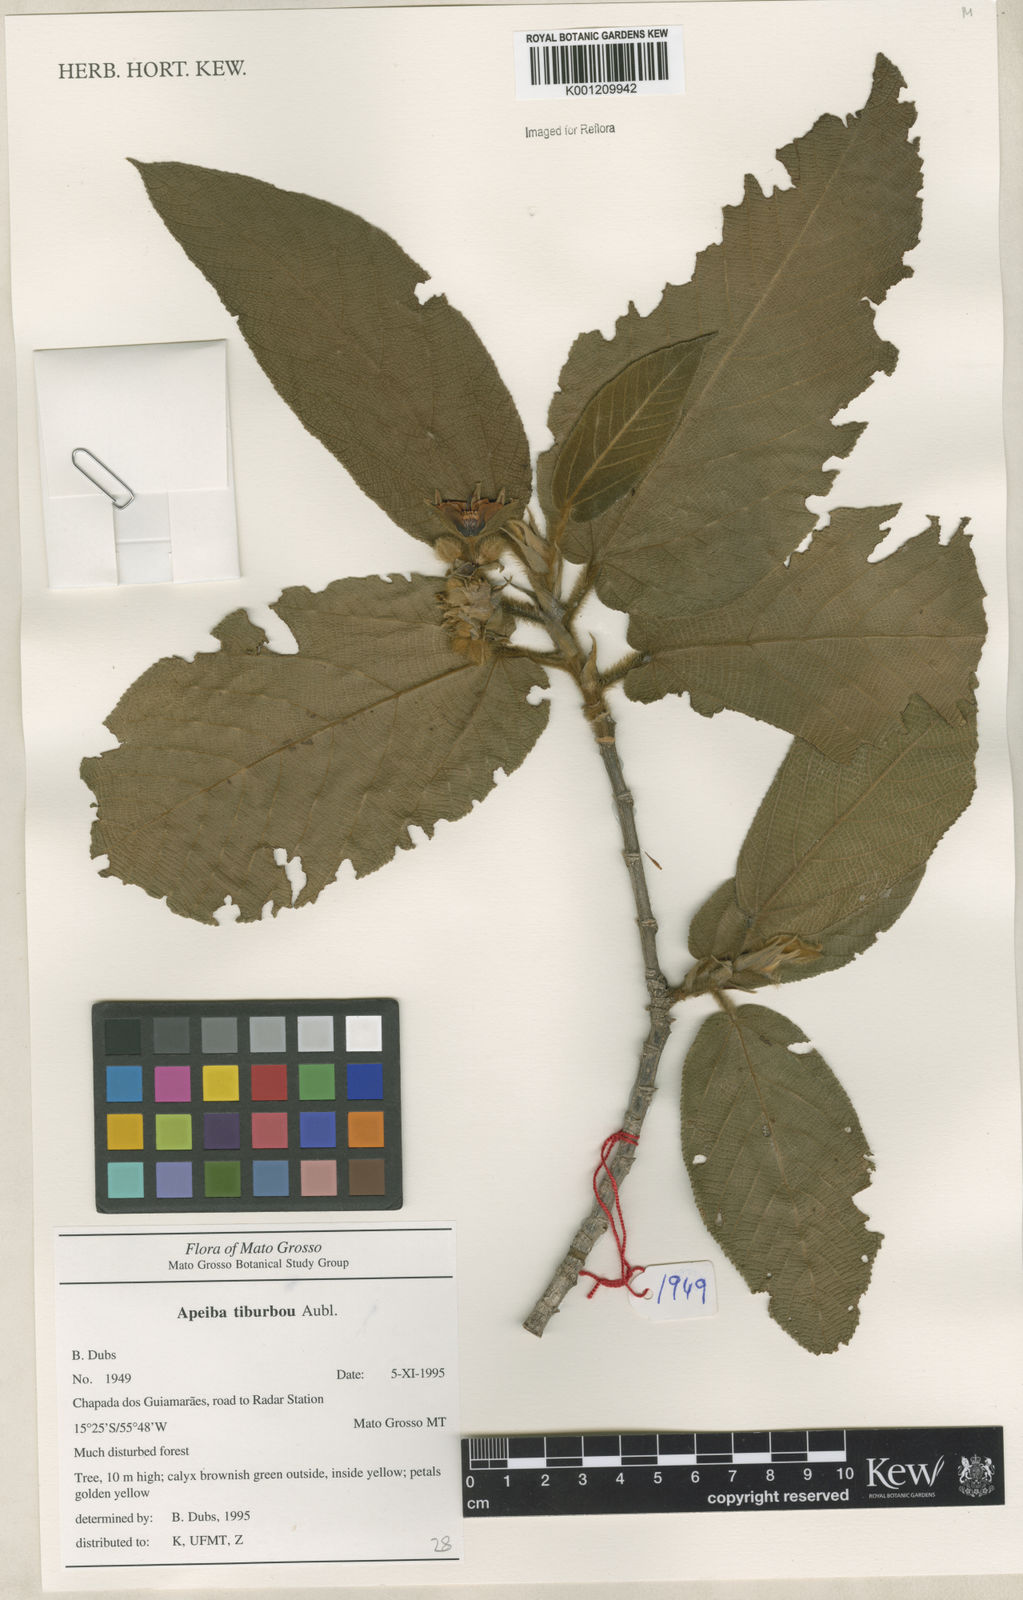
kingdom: Plantae
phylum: Tracheophyta
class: Magnoliopsida
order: Malvales
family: Malvaceae
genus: Apeiba
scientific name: Apeiba tibourbou
